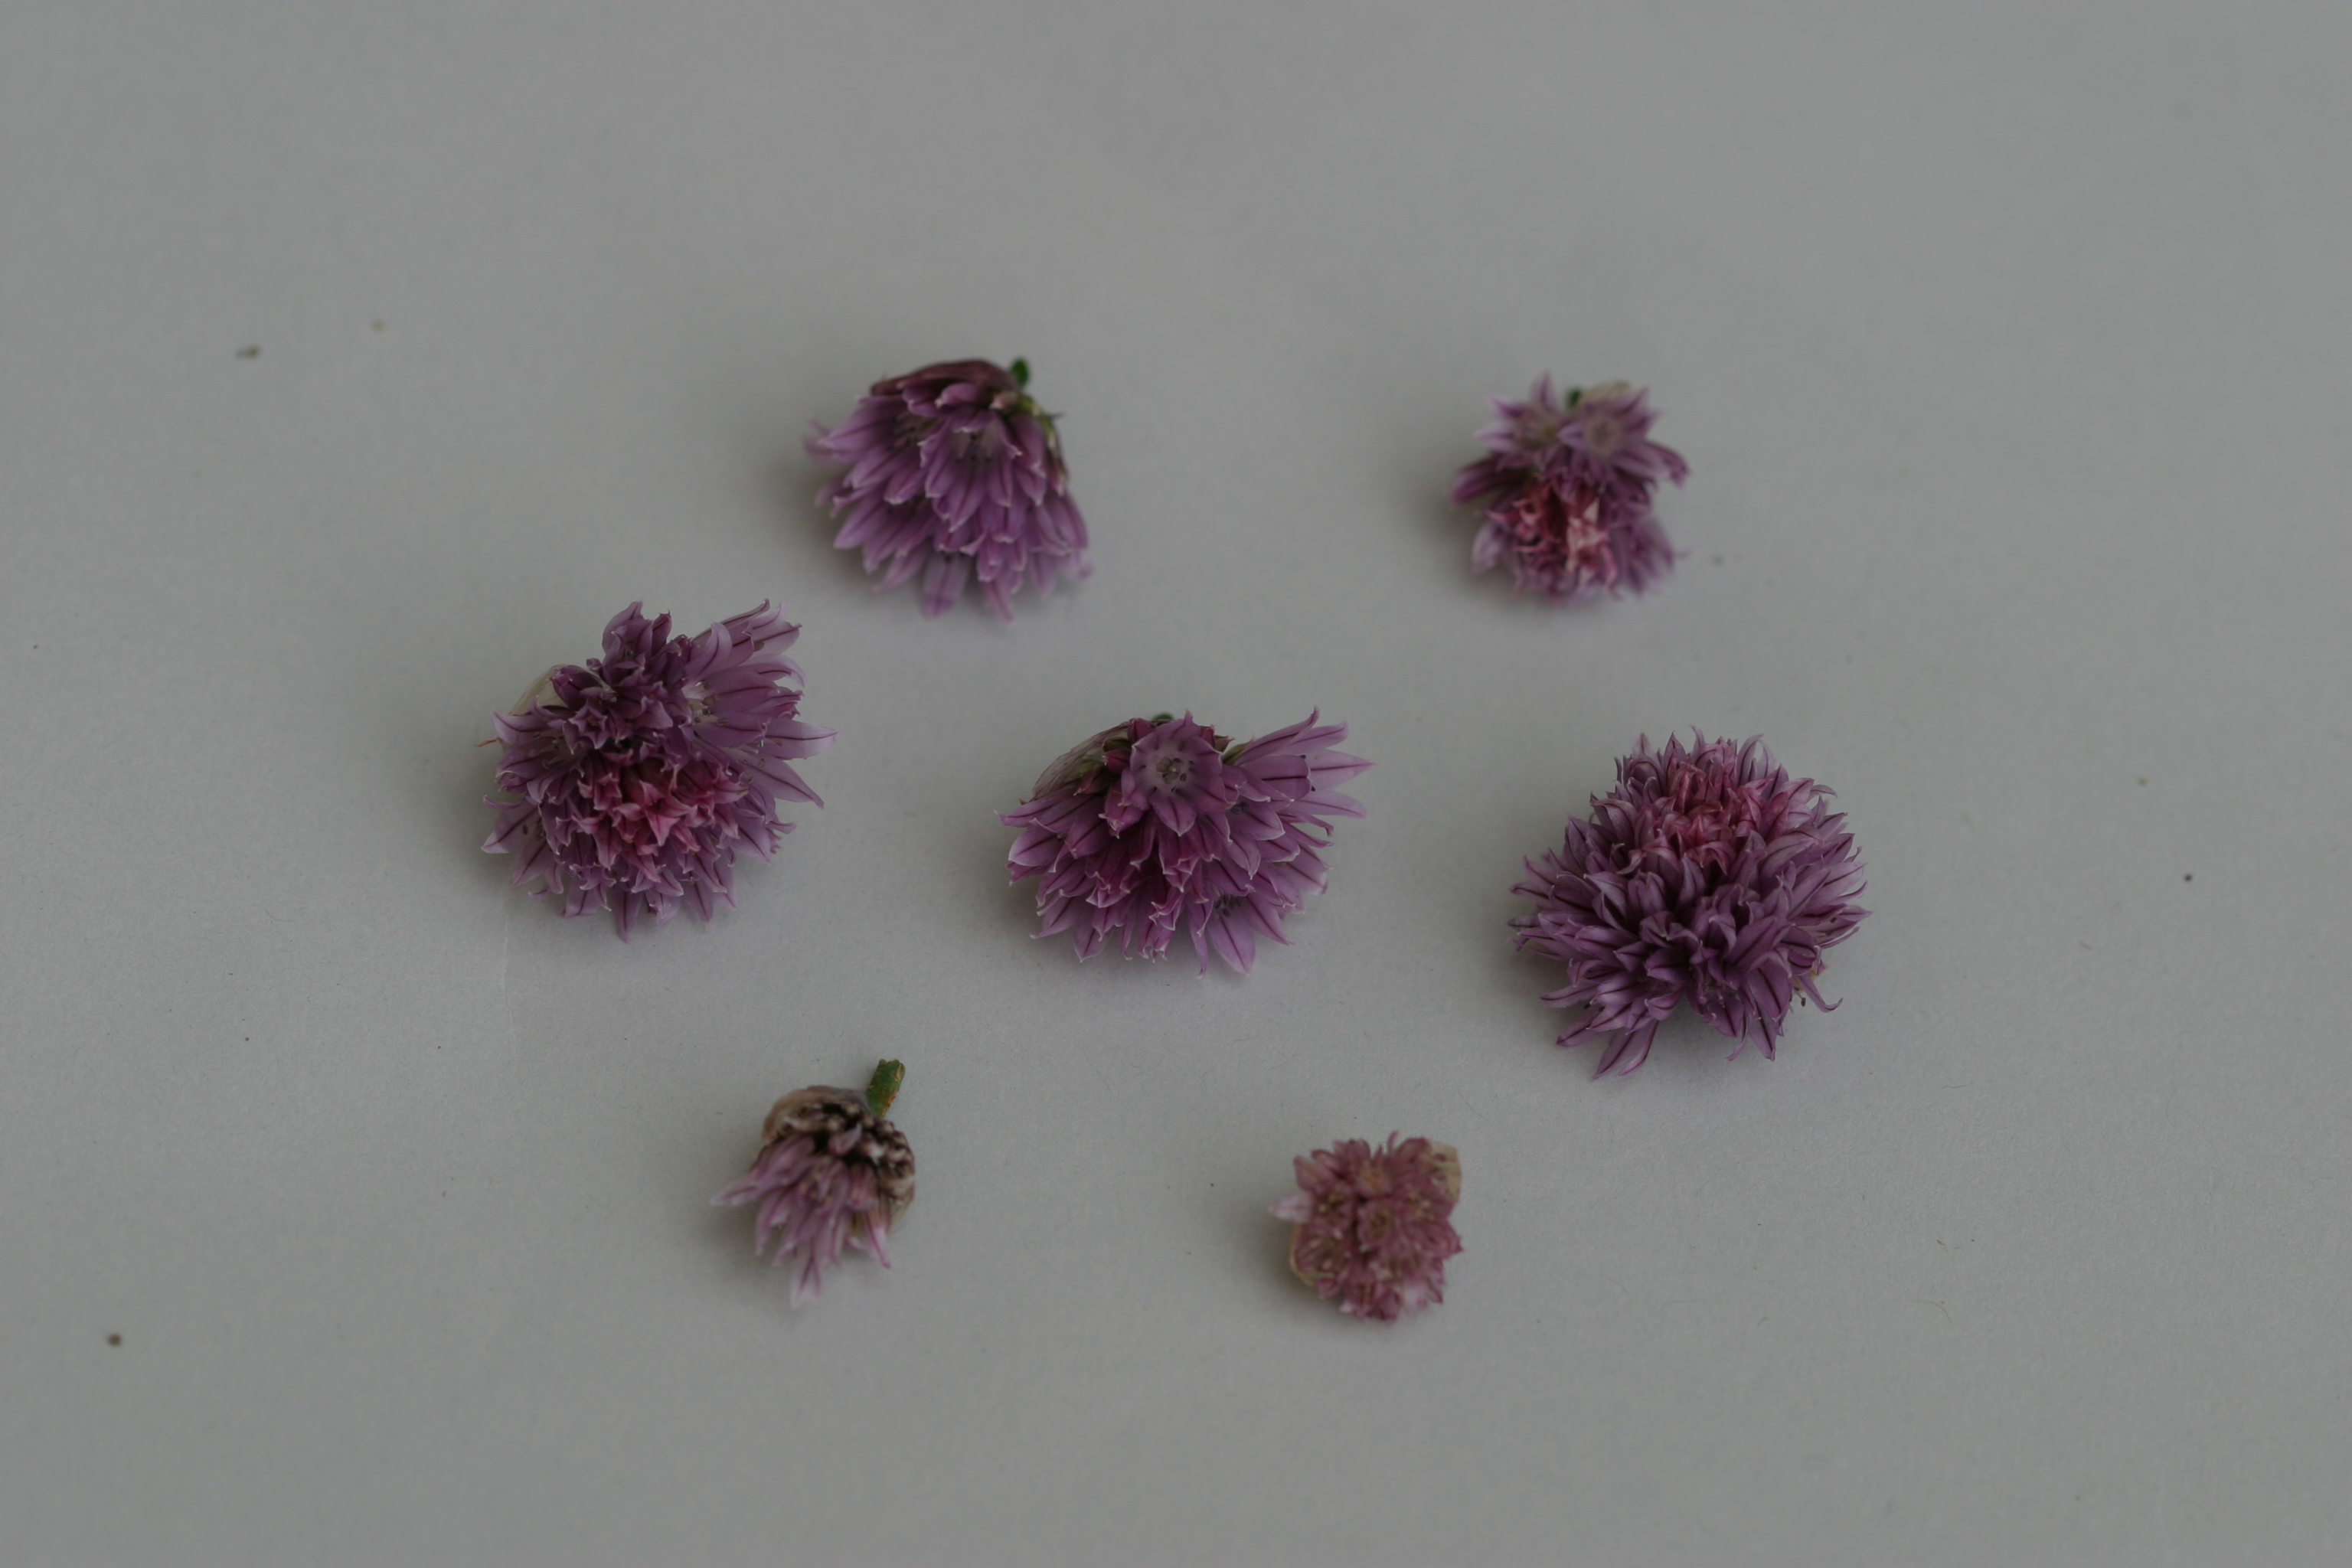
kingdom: Plantae
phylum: Tracheophyta
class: Liliopsida
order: Asparagales
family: Amaryllidaceae
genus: Allium
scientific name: Allium schoenoprasum
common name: Chives
